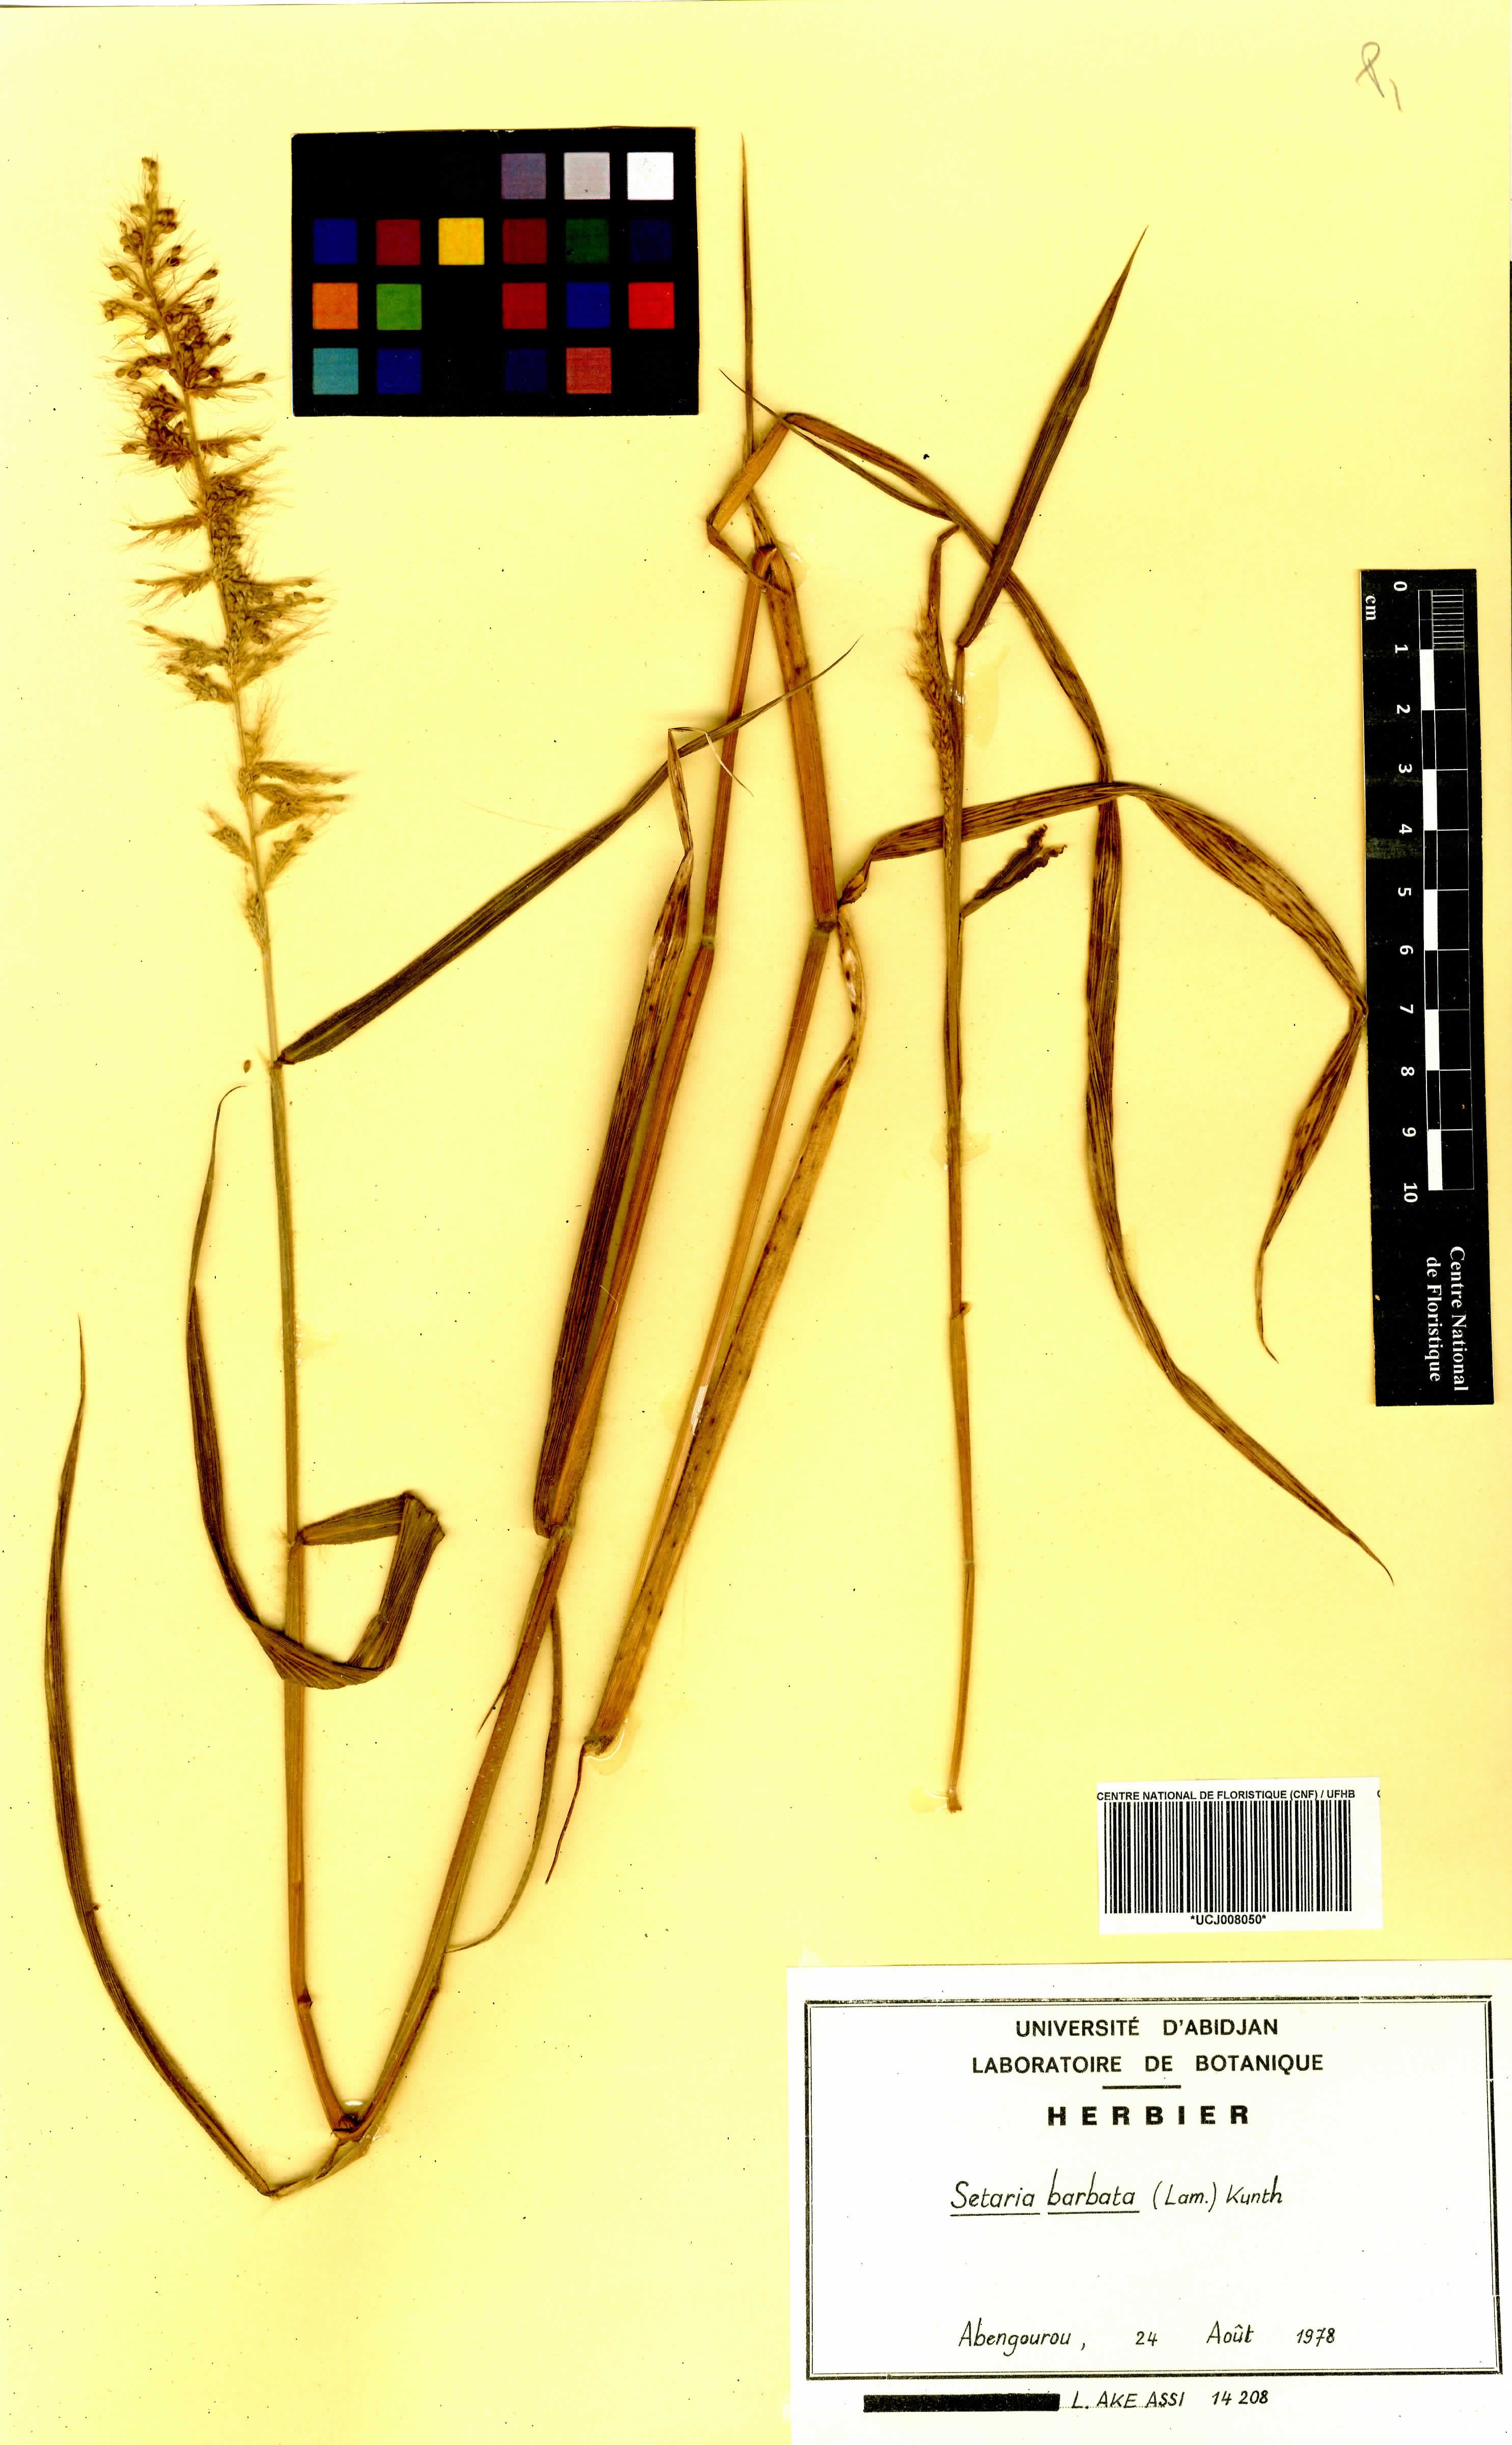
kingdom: Plantae
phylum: Tracheophyta
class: Liliopsida
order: Poales
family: Poaceae
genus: Setaria
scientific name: Setaria barbata
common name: East indian bristlegrass
